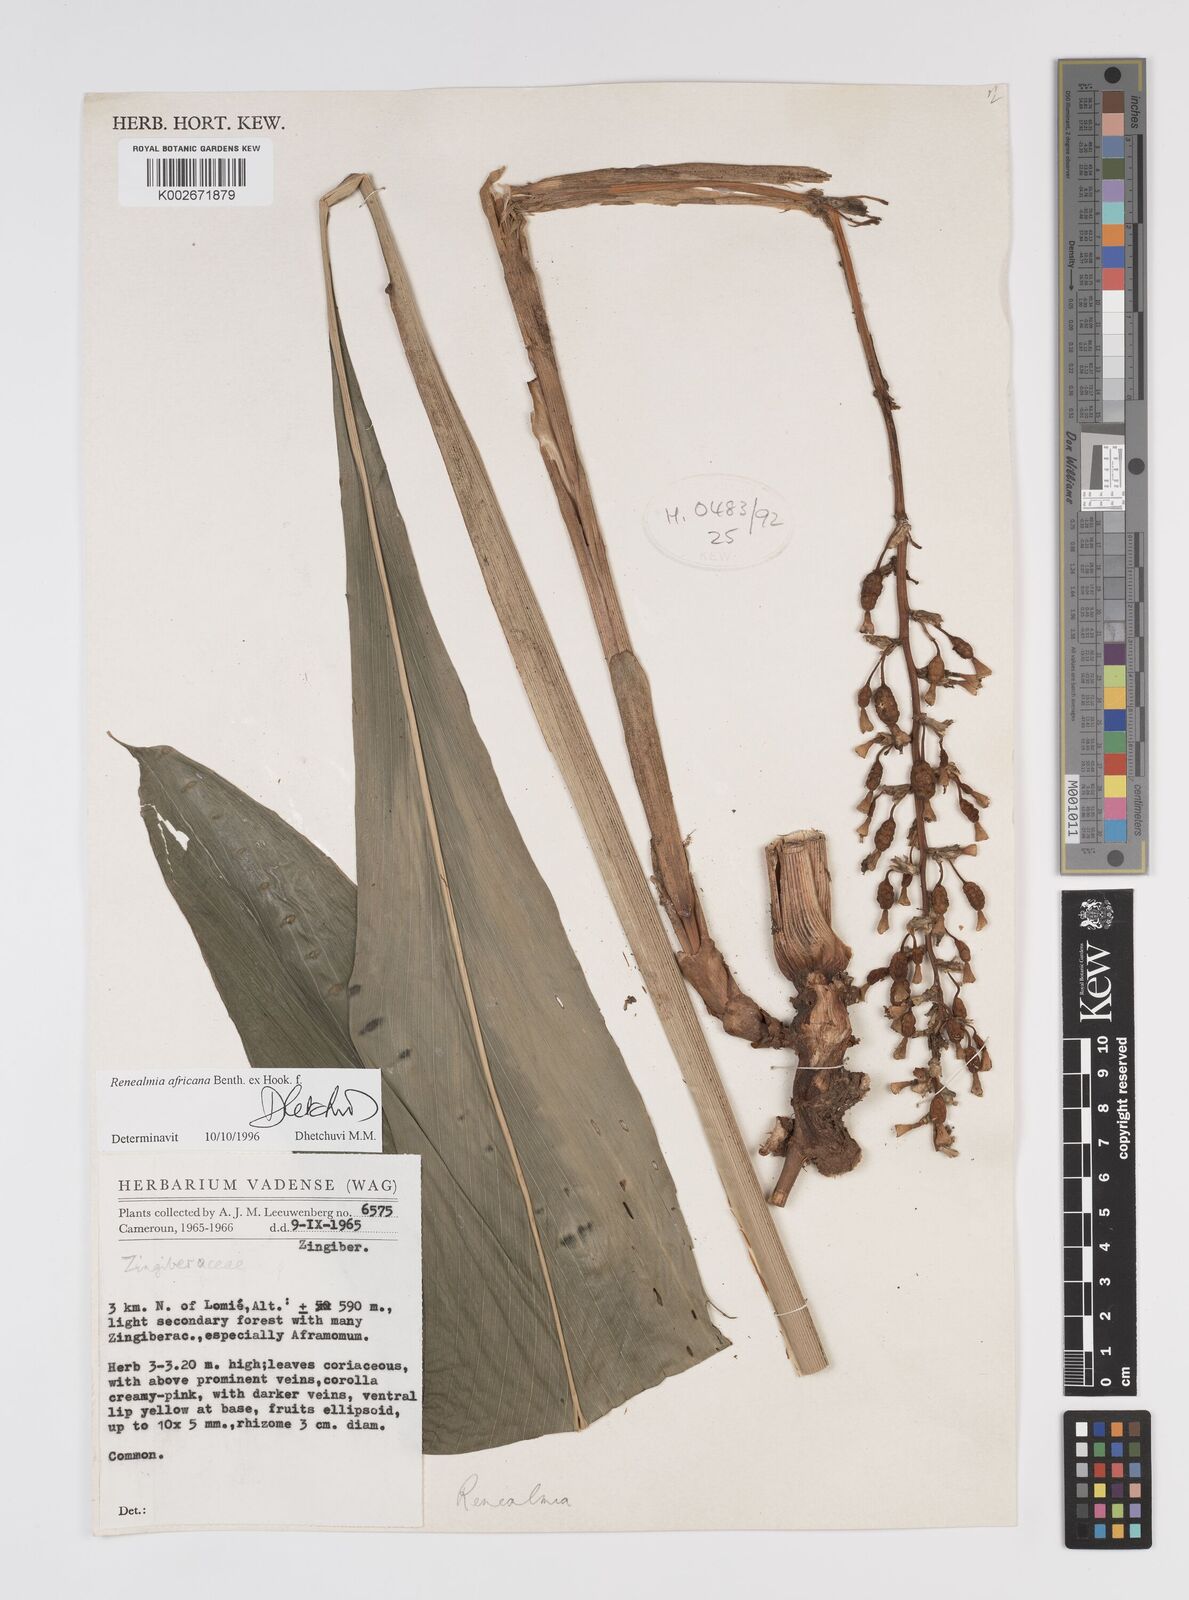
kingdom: Plantae
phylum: Tracheophyta
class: Liliopsida
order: Zingiberales
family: Zingiberaceae
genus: Renealmia
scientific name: Renealmia africana
